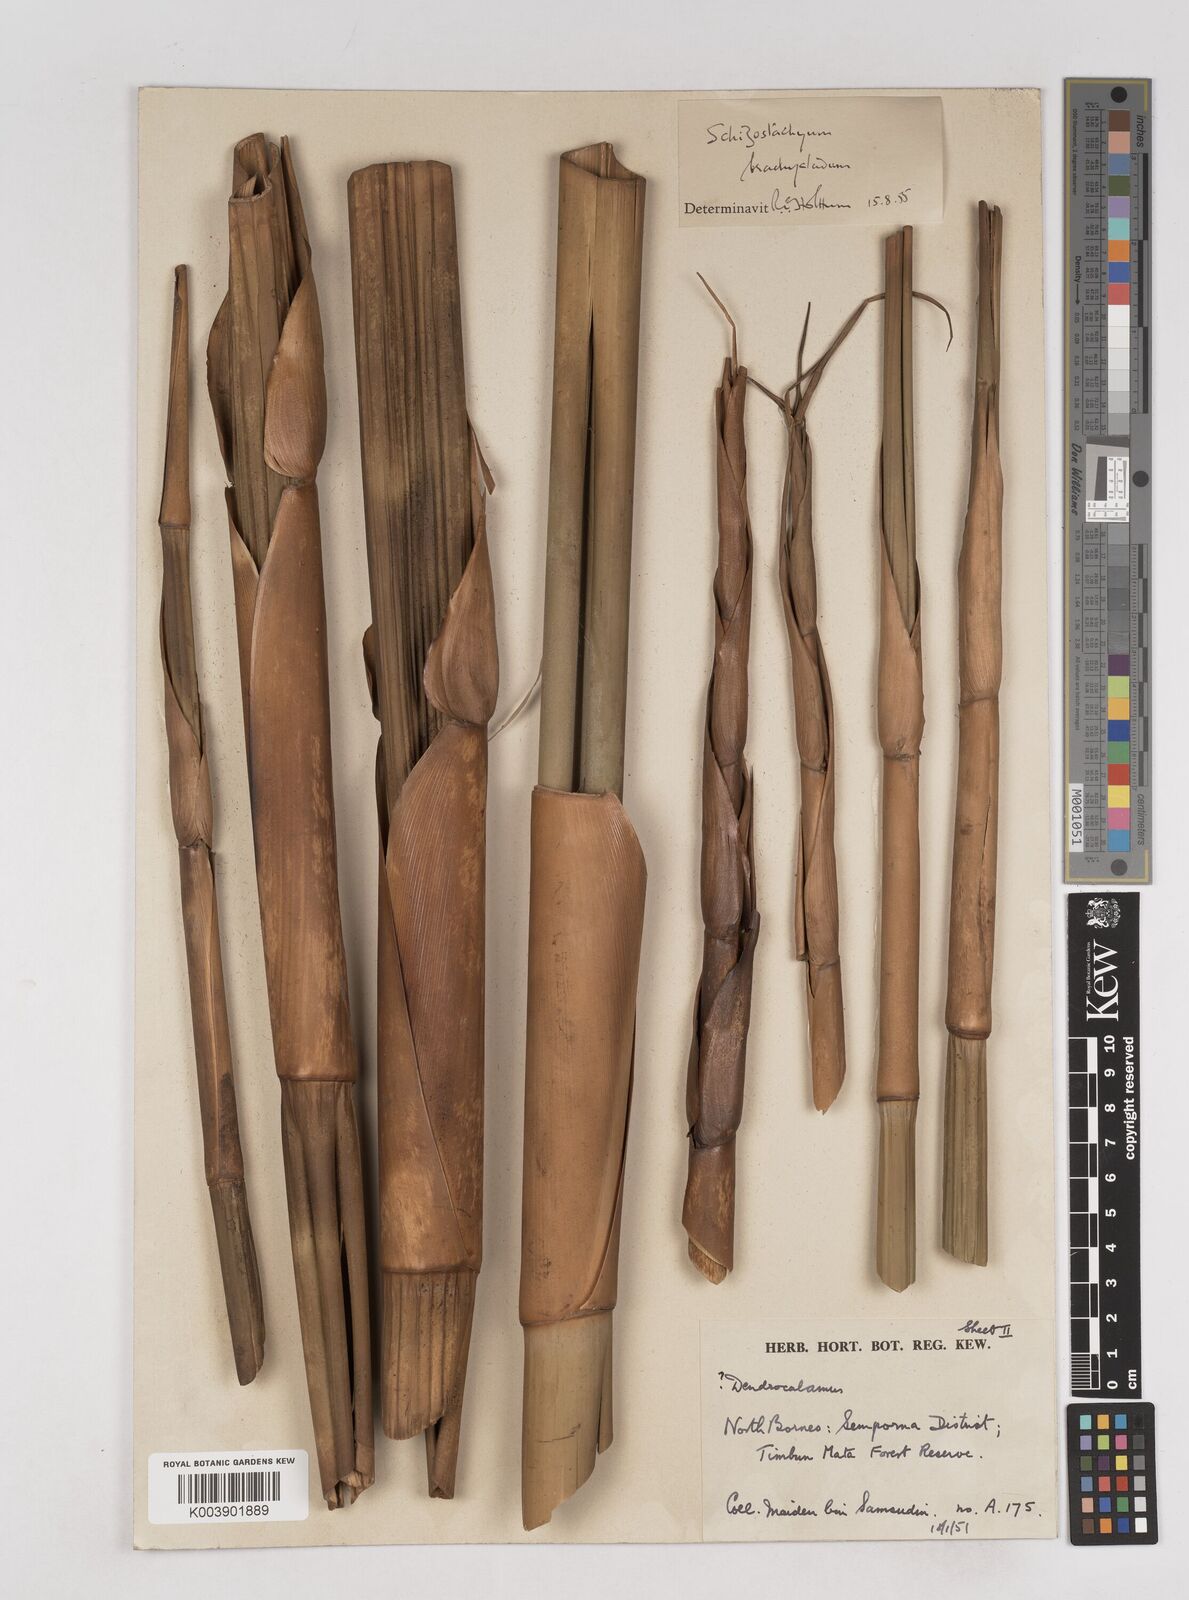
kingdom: Plantae
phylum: Tracheophyta
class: Liliopsida
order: Poales
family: Poaceae
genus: Schizostachyum
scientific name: Schizostachyum brachycladum
